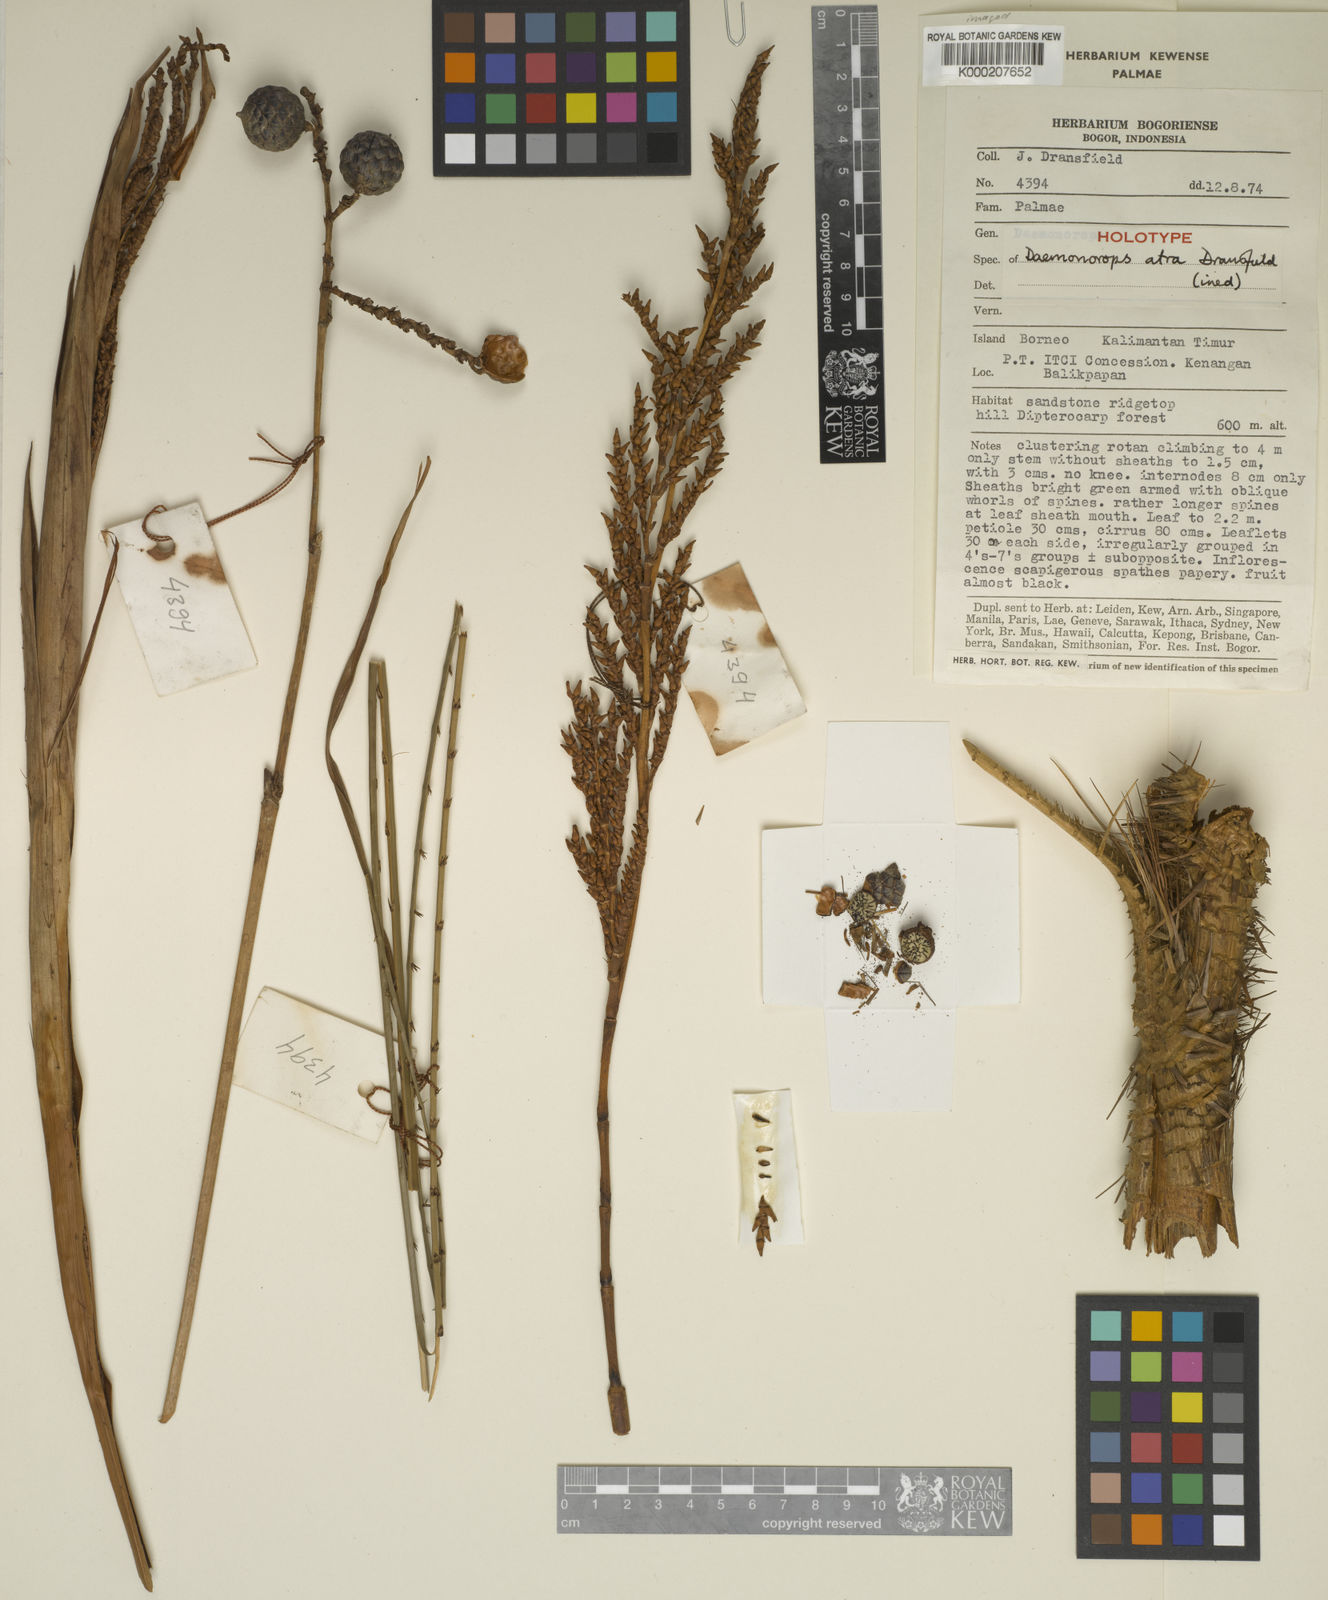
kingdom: Plantae
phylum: Tracheophyta
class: Liliopsida
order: Arecales
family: Arecaceae
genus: Calamus
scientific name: Calamus ater
